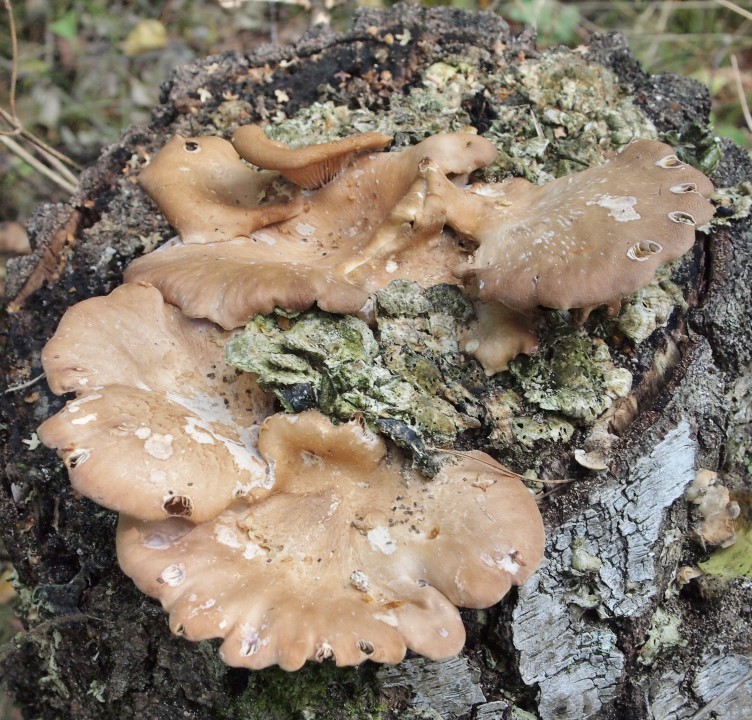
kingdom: Fungi
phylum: Basidiomycota
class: Agaricomycetes
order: Polyporales
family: Panaceae
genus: Panus
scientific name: Panus conchatus
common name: filtstokket læderhat
